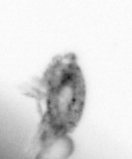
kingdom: Animalia
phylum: Arthropoda
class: Copepoda
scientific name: Copepoda
